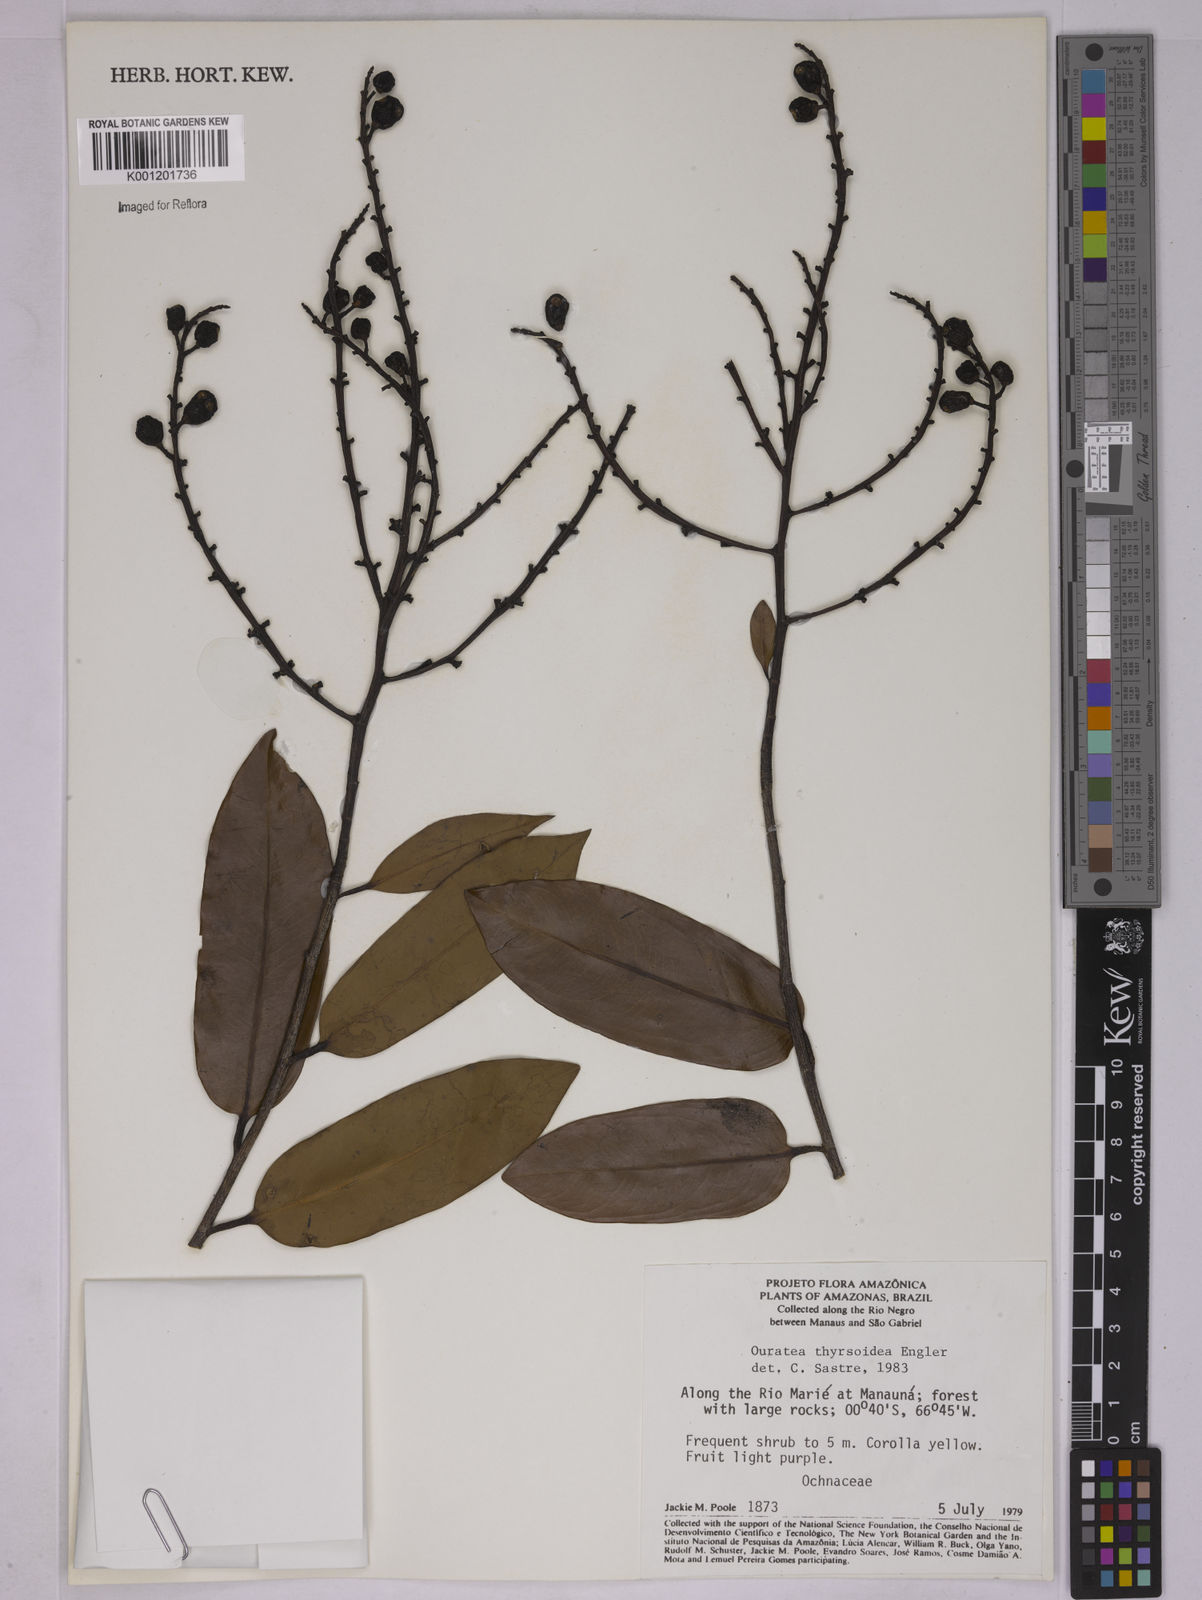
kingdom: Plantae
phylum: Tracheophyta
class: Magnoliopsida
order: Malpighiales
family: Ochnaceae
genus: Ouratea
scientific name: Ouratea thyrsoidea
